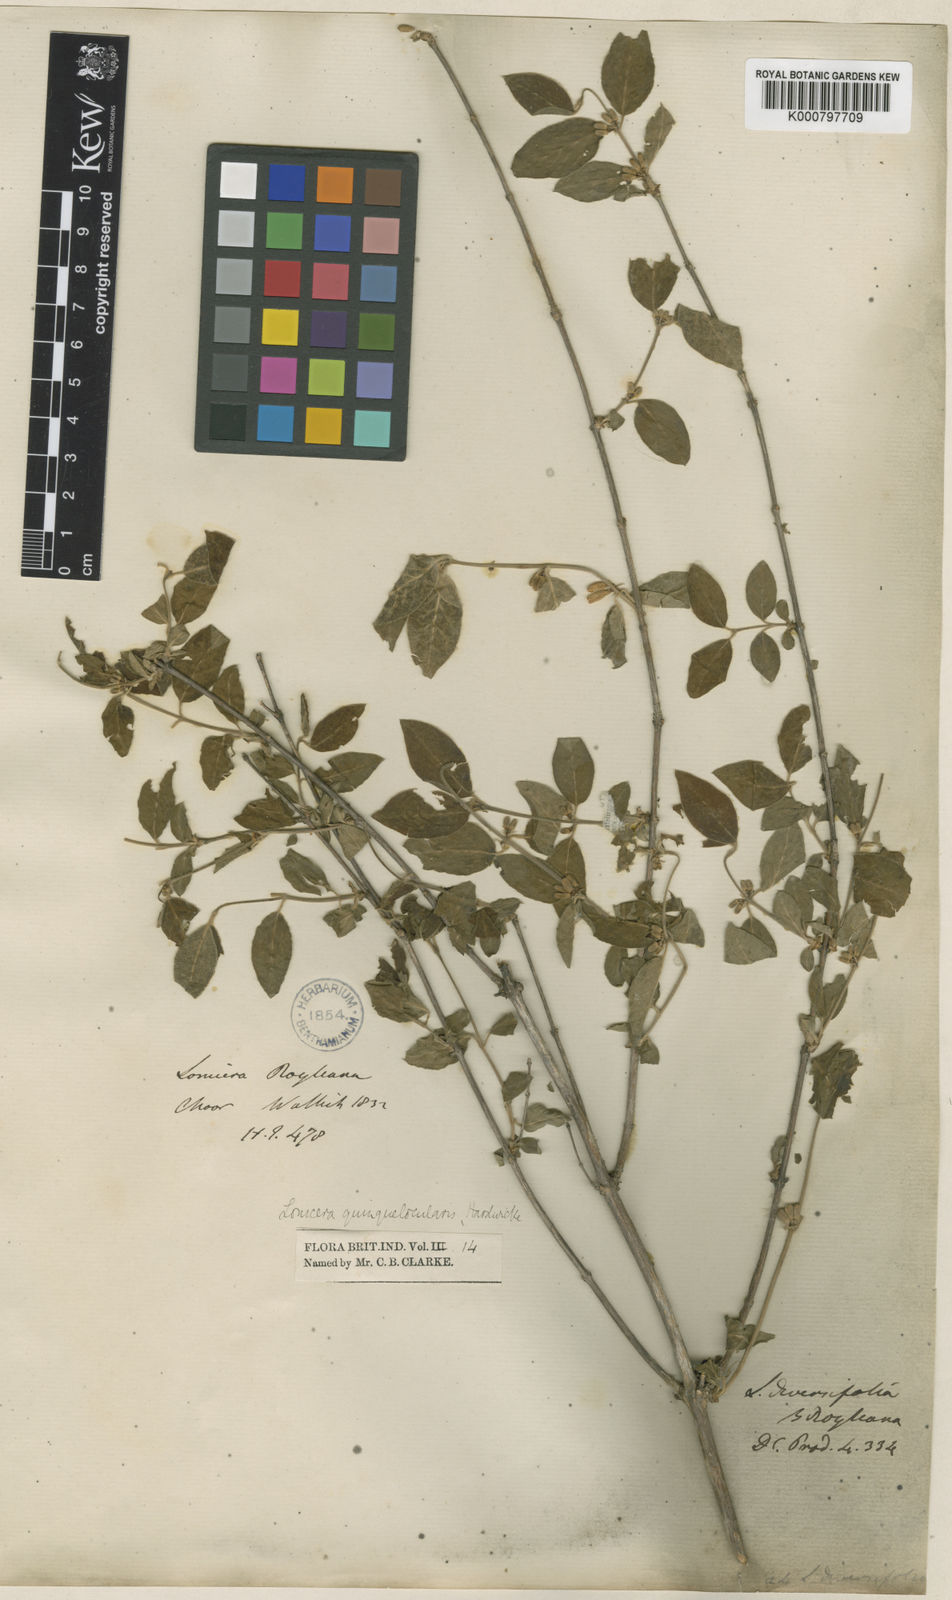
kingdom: Plantae
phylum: Tracheophyta
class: Magnoliopsida
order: Dipsacales
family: Caprifoliaceae
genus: Lonicera
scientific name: Lonicera quinquelocularis
